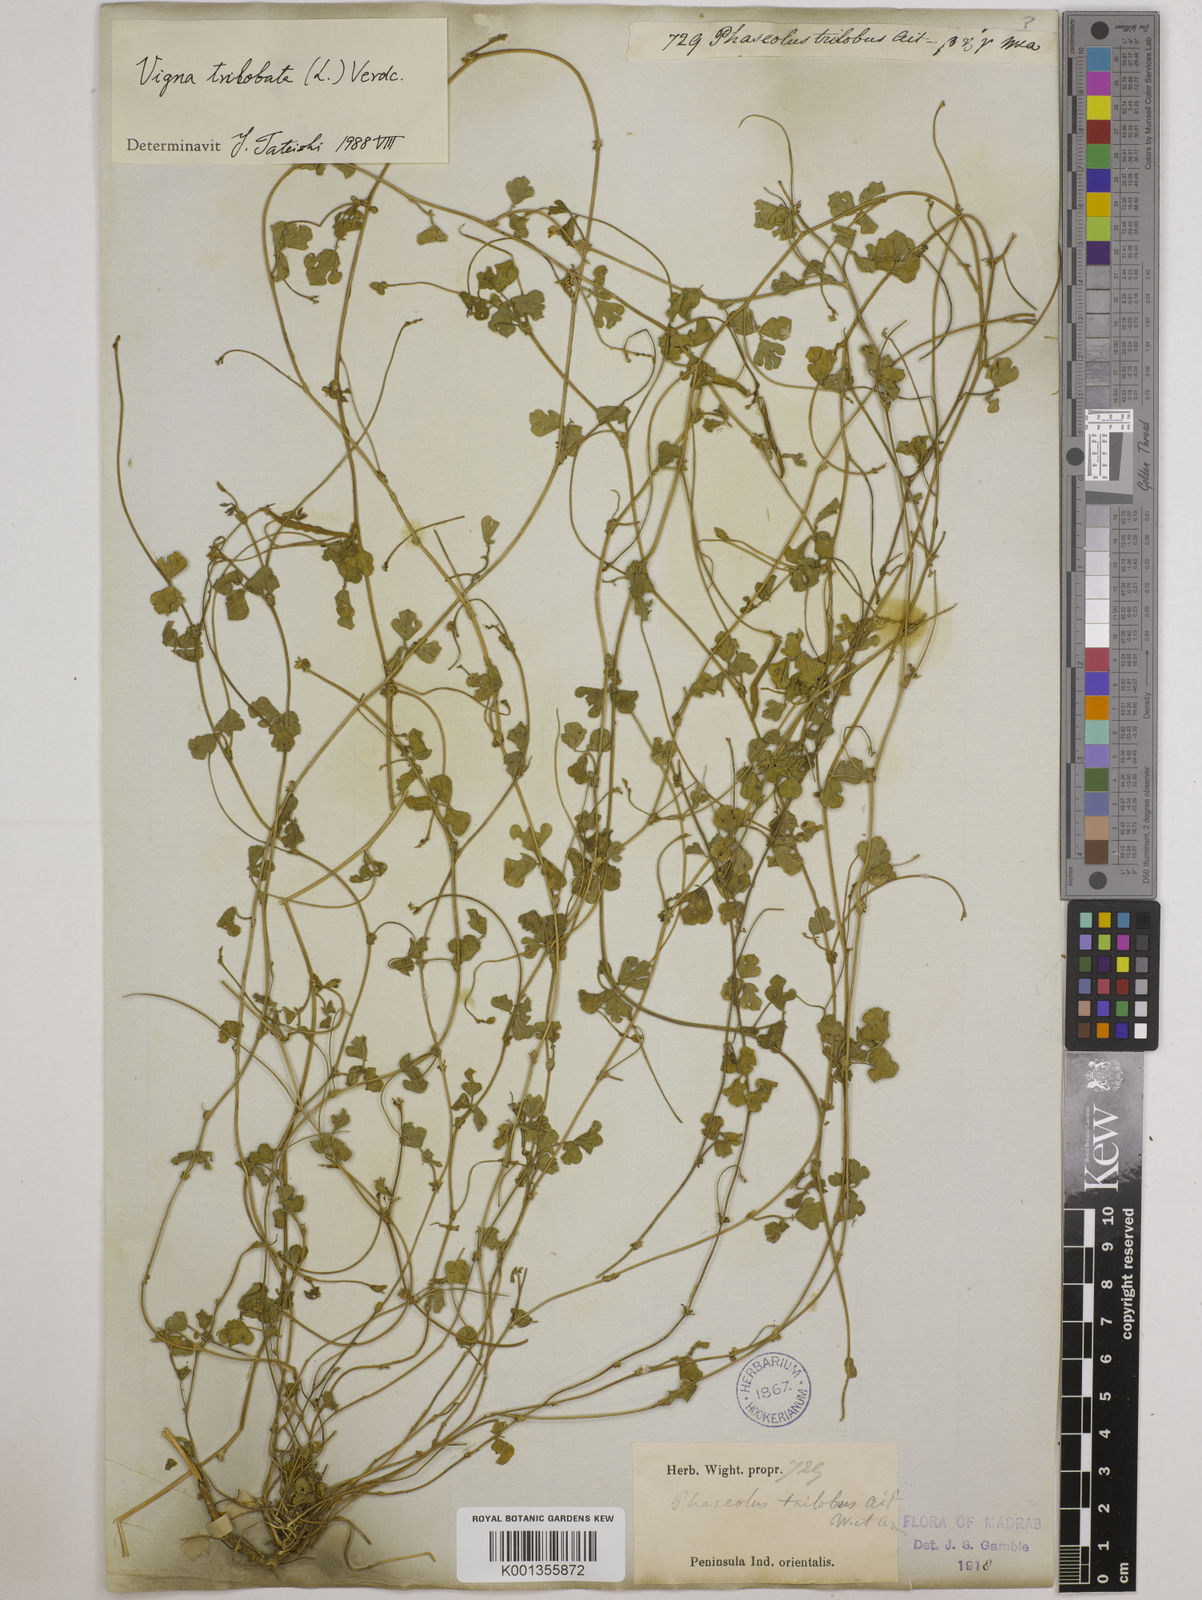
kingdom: Plantae
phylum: Tracheophyta
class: Magnoliopsida
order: Fabales
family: Fabaceae
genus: Vigna
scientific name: Vigna trilobata
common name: Jungli-bean
